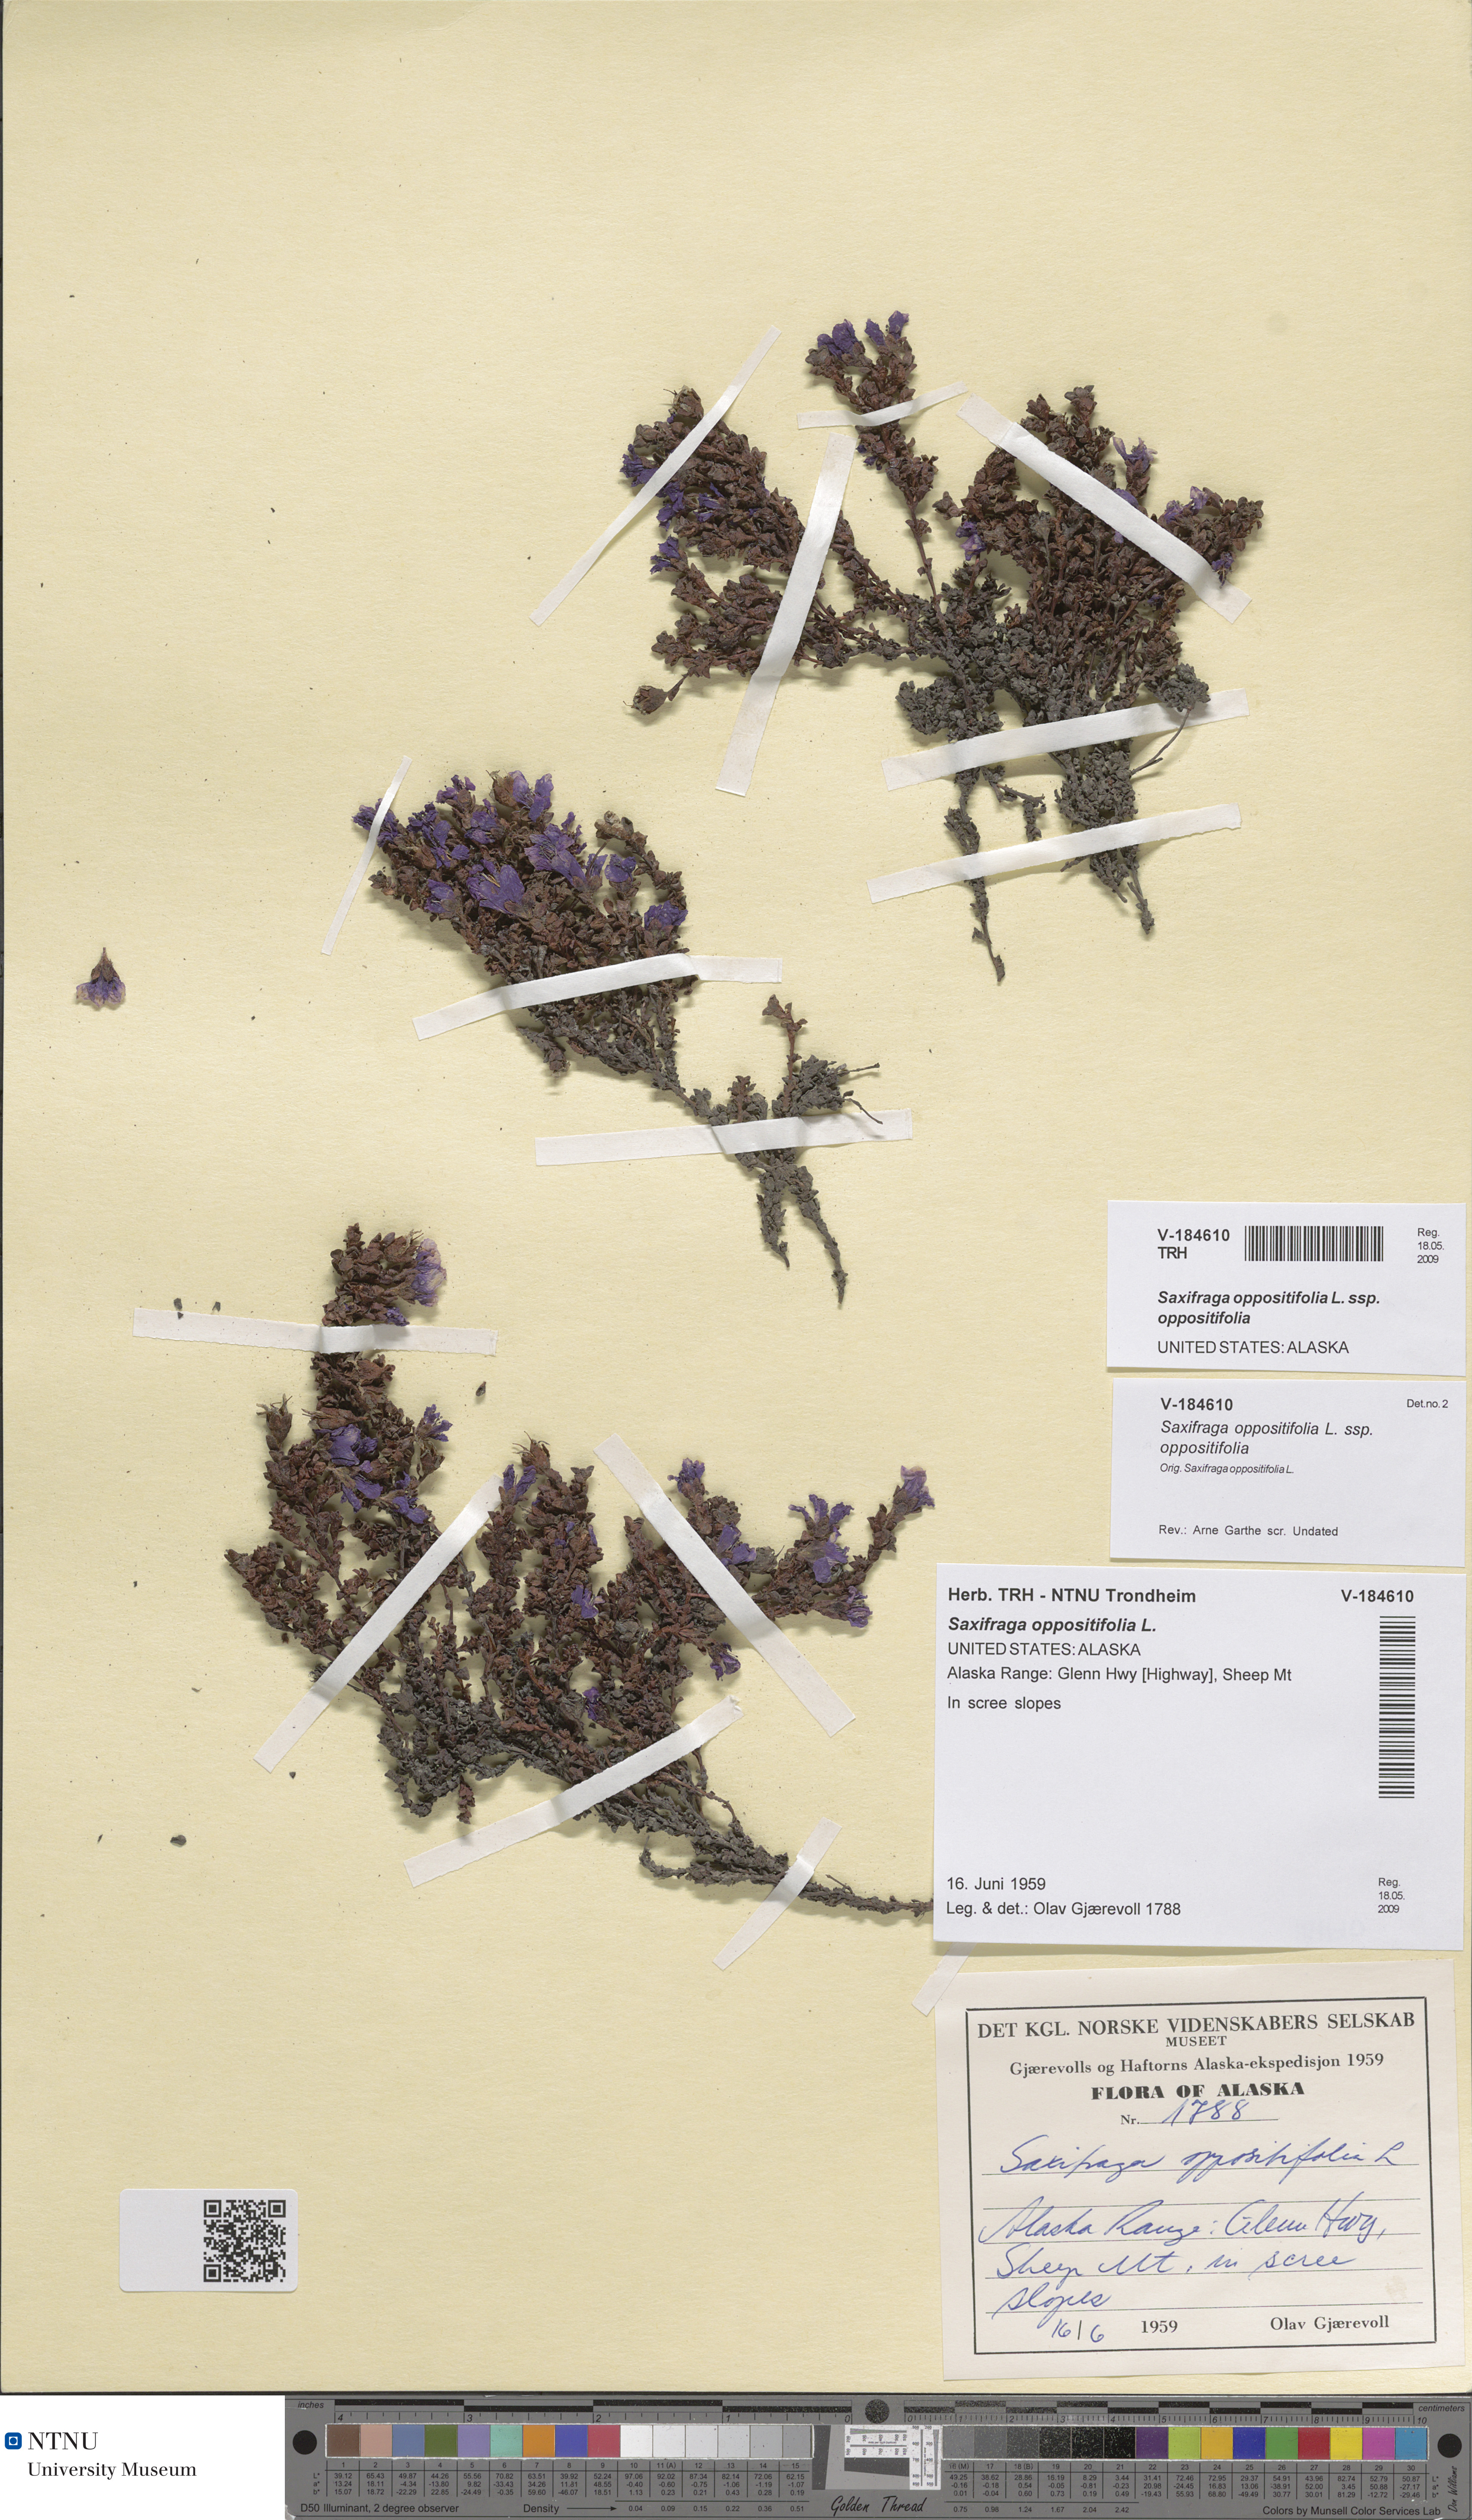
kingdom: Plantae
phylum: Tracheophyta
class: Magnoliopsida
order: Saxifragales
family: Saxifragaceae
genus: Saxifraga
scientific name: Saxifraga oppositifolia
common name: Purple saxifrage
